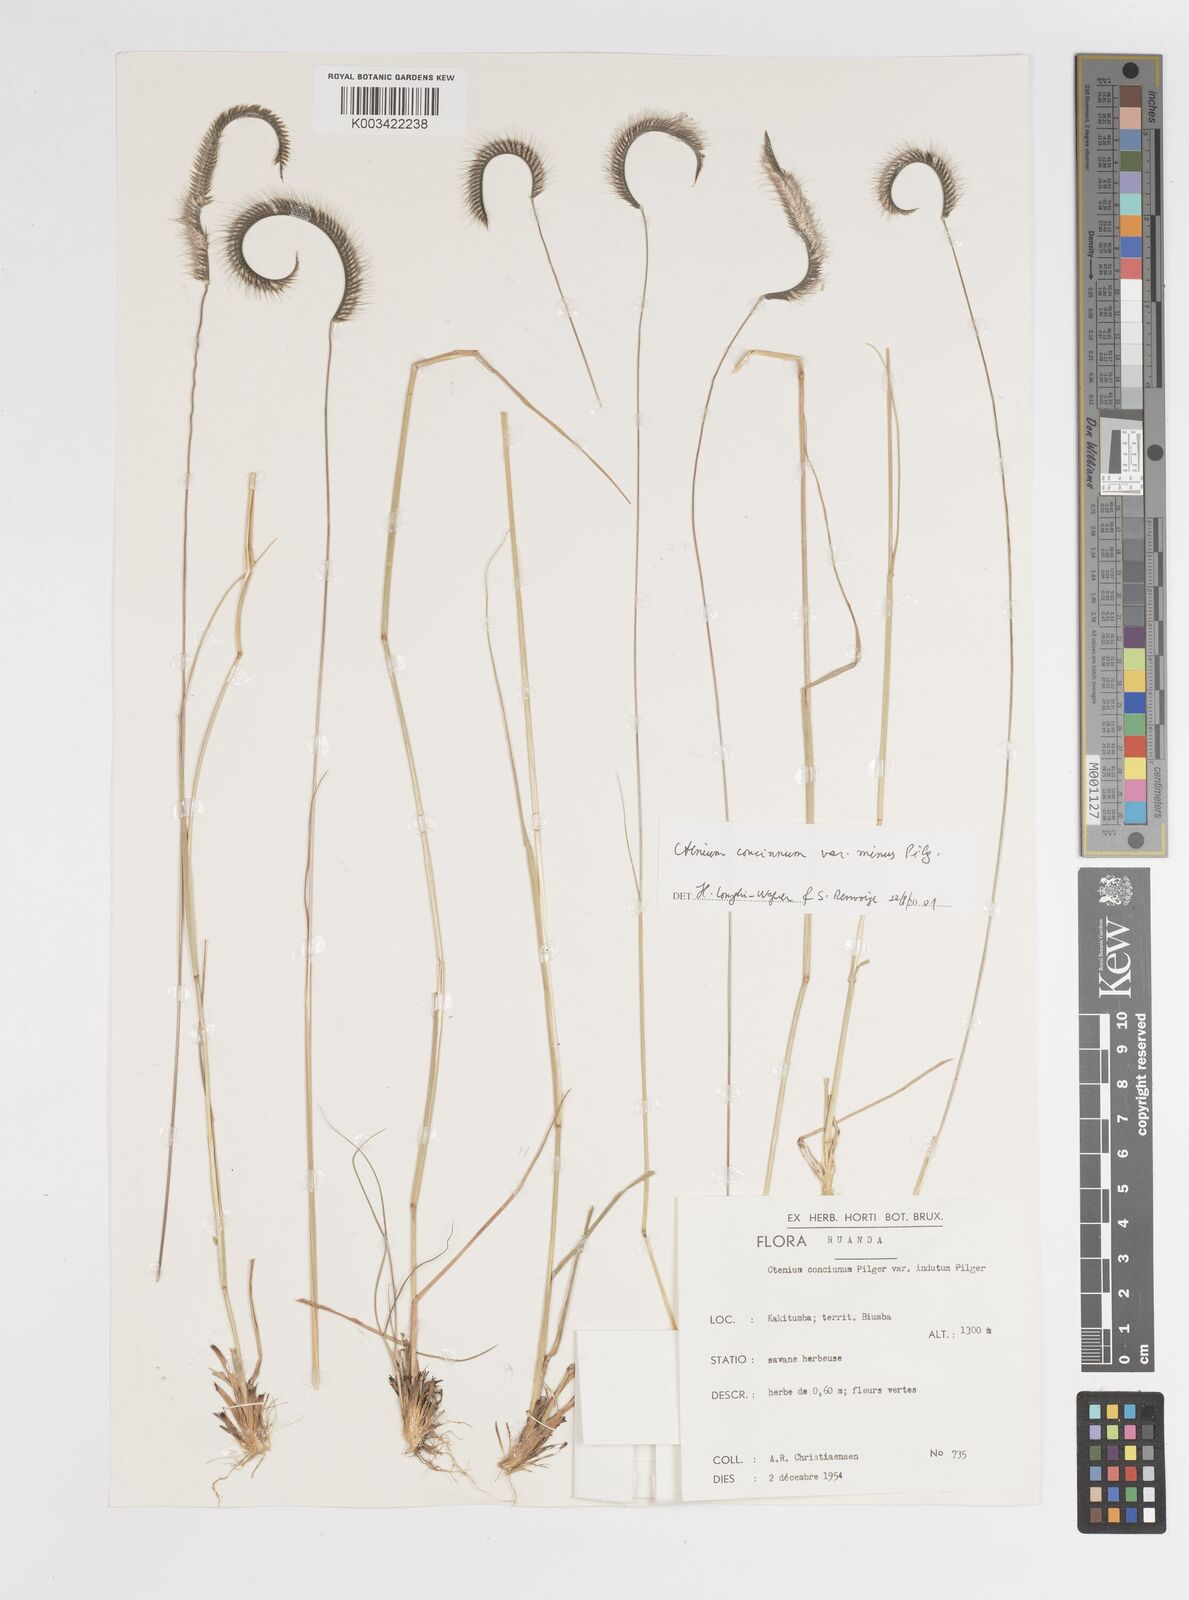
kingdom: Plantae
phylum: Tracheophyta
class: Liliopsida
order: Poales
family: Poaceae
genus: Ctenium
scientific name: Ctenium concinnum
